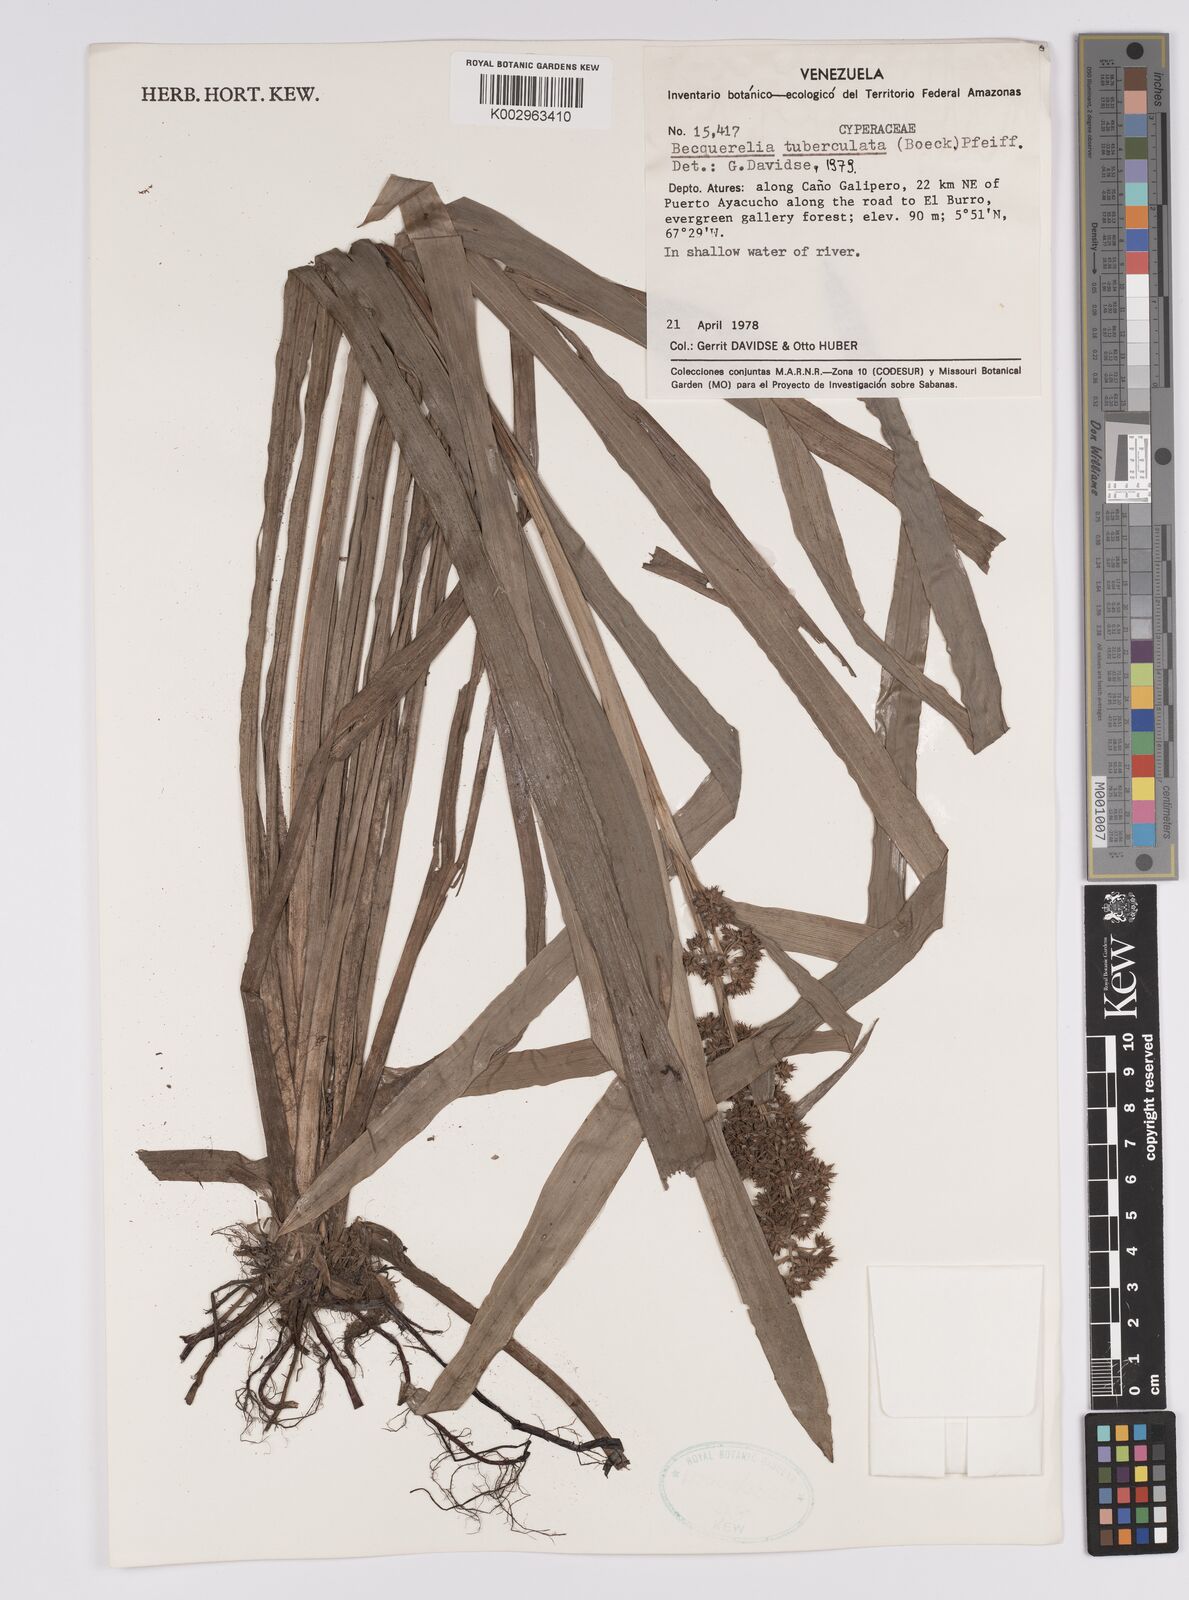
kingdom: Plantae
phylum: Tracheophyta
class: Liliopsida
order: Poales
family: Cyperaceae
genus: Becquerelia
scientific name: Becquerelia tuberculata
